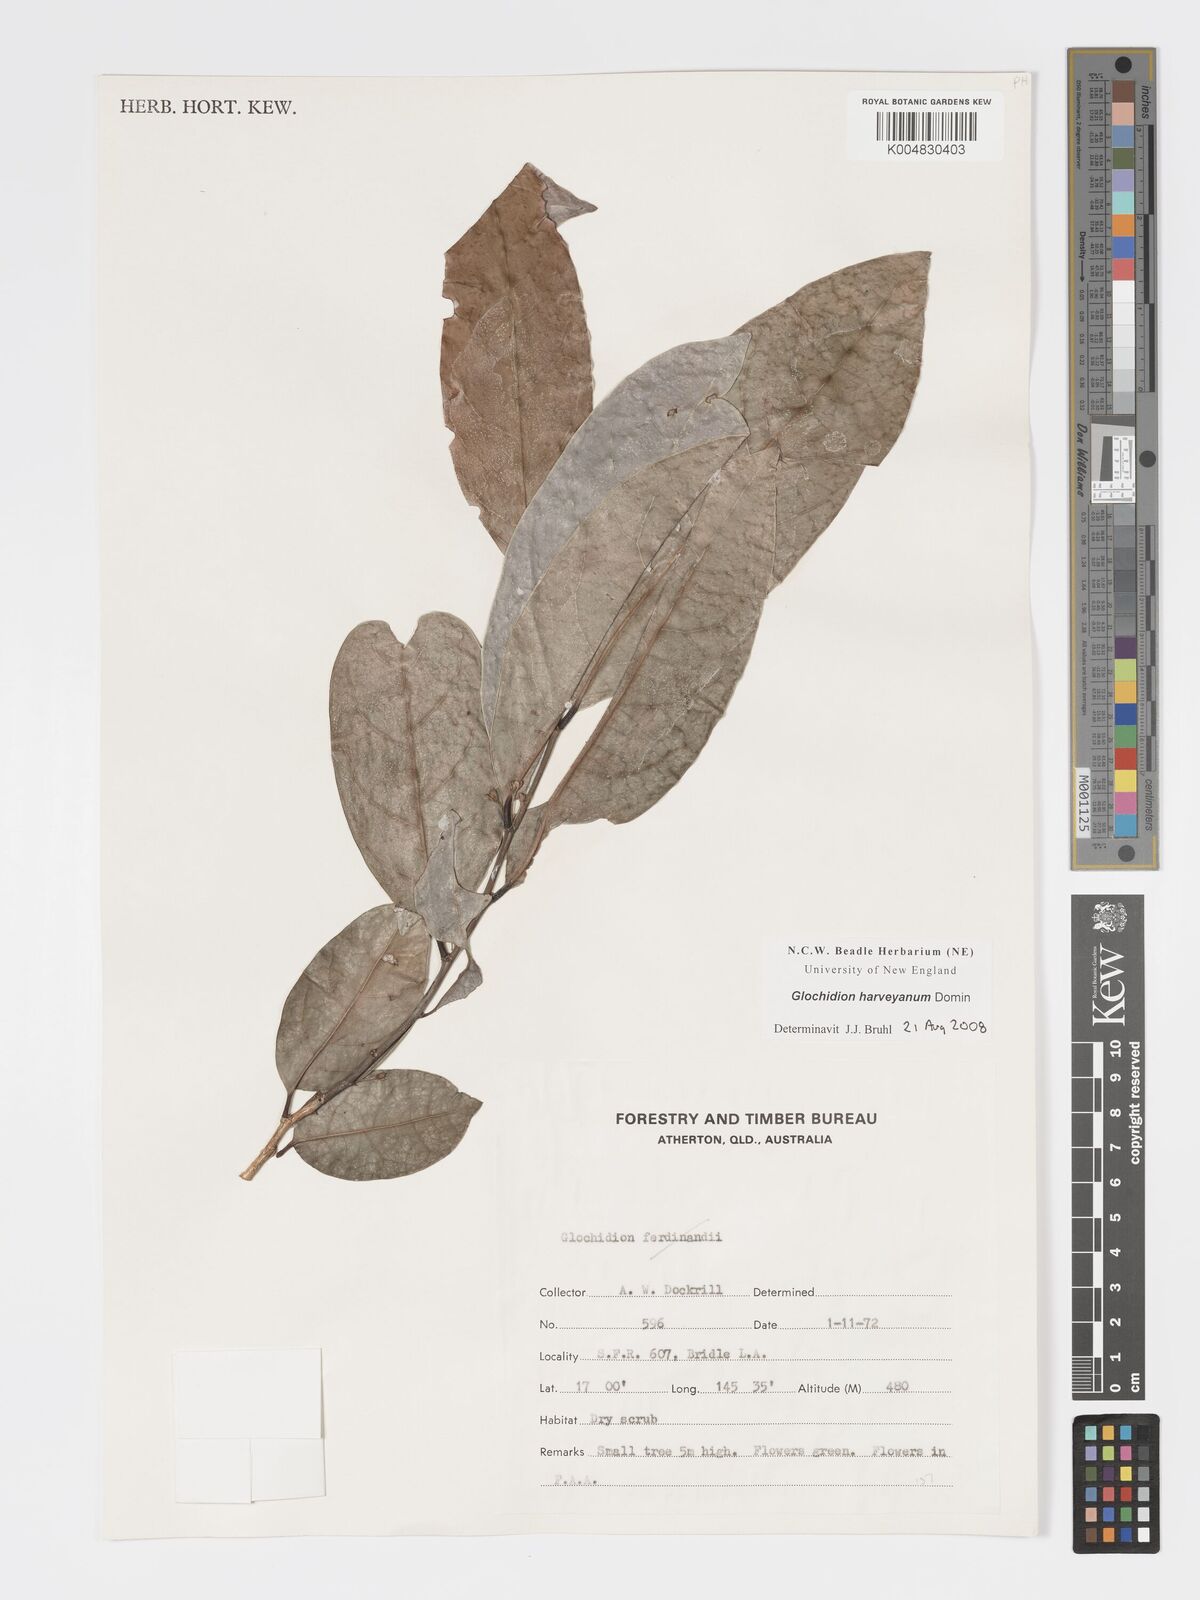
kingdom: Plantae
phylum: Tracheophyta
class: Magnoliopsida
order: Malpighiales
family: Phyllanthaceae
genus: Glochidion
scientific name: Glochidion harveyanum
